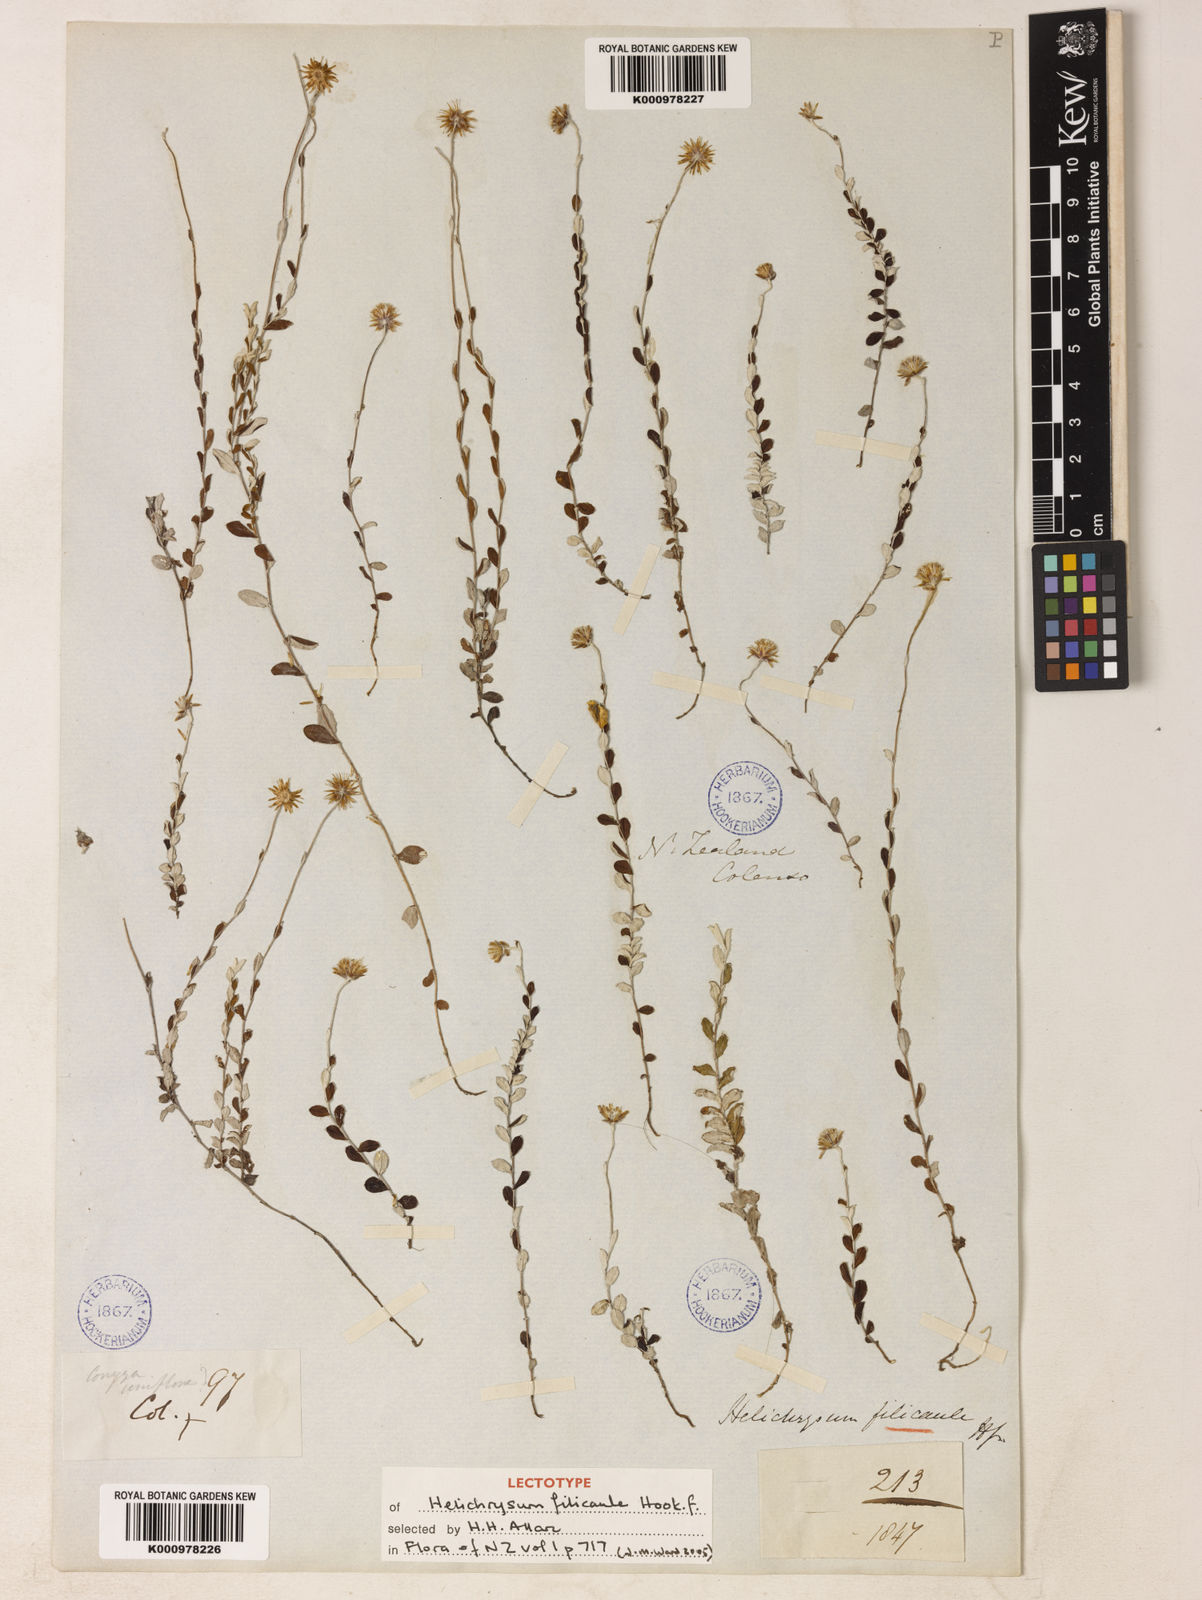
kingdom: Plantae
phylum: Tracheophyta
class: Magnoliopsida
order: Asterales
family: Asteraceae
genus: Helichrysum
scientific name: Helichrysum filicaule
